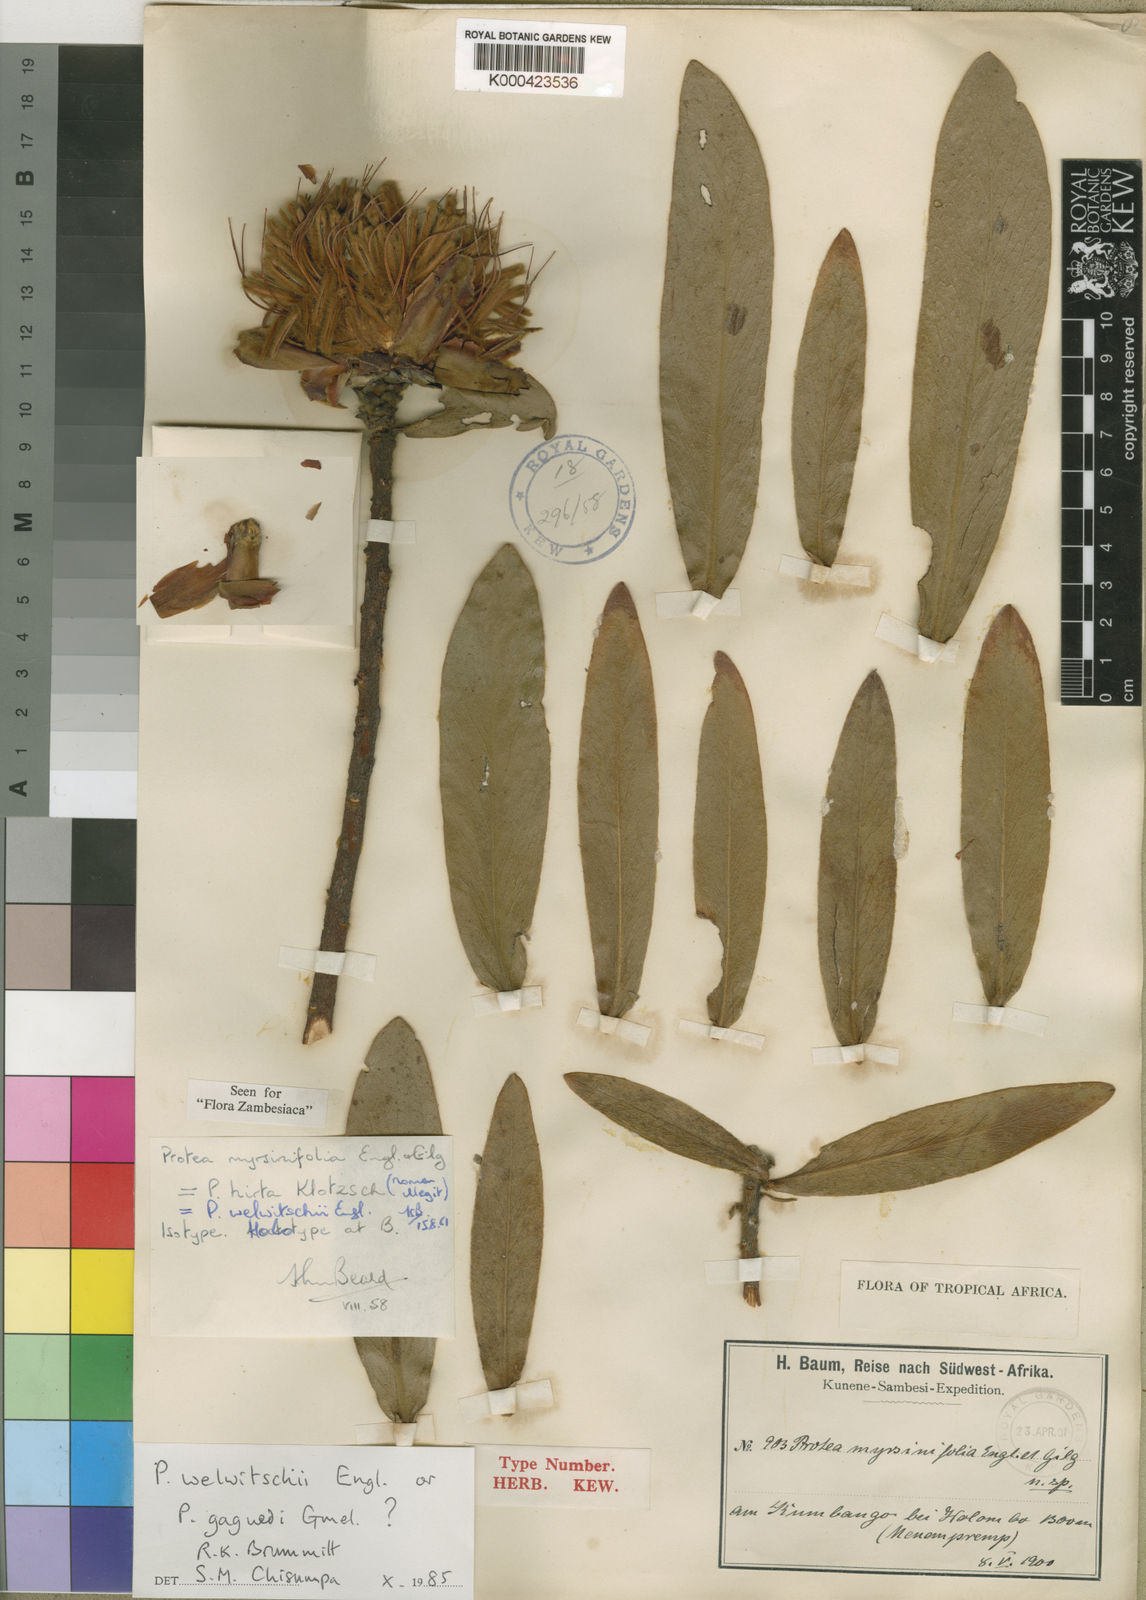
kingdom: Plantae
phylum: Tracheophyta
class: Magnoliopsida
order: Proteales
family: Proteaceae
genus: Protea
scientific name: Protea welwitschii
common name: Cluster-head protea
